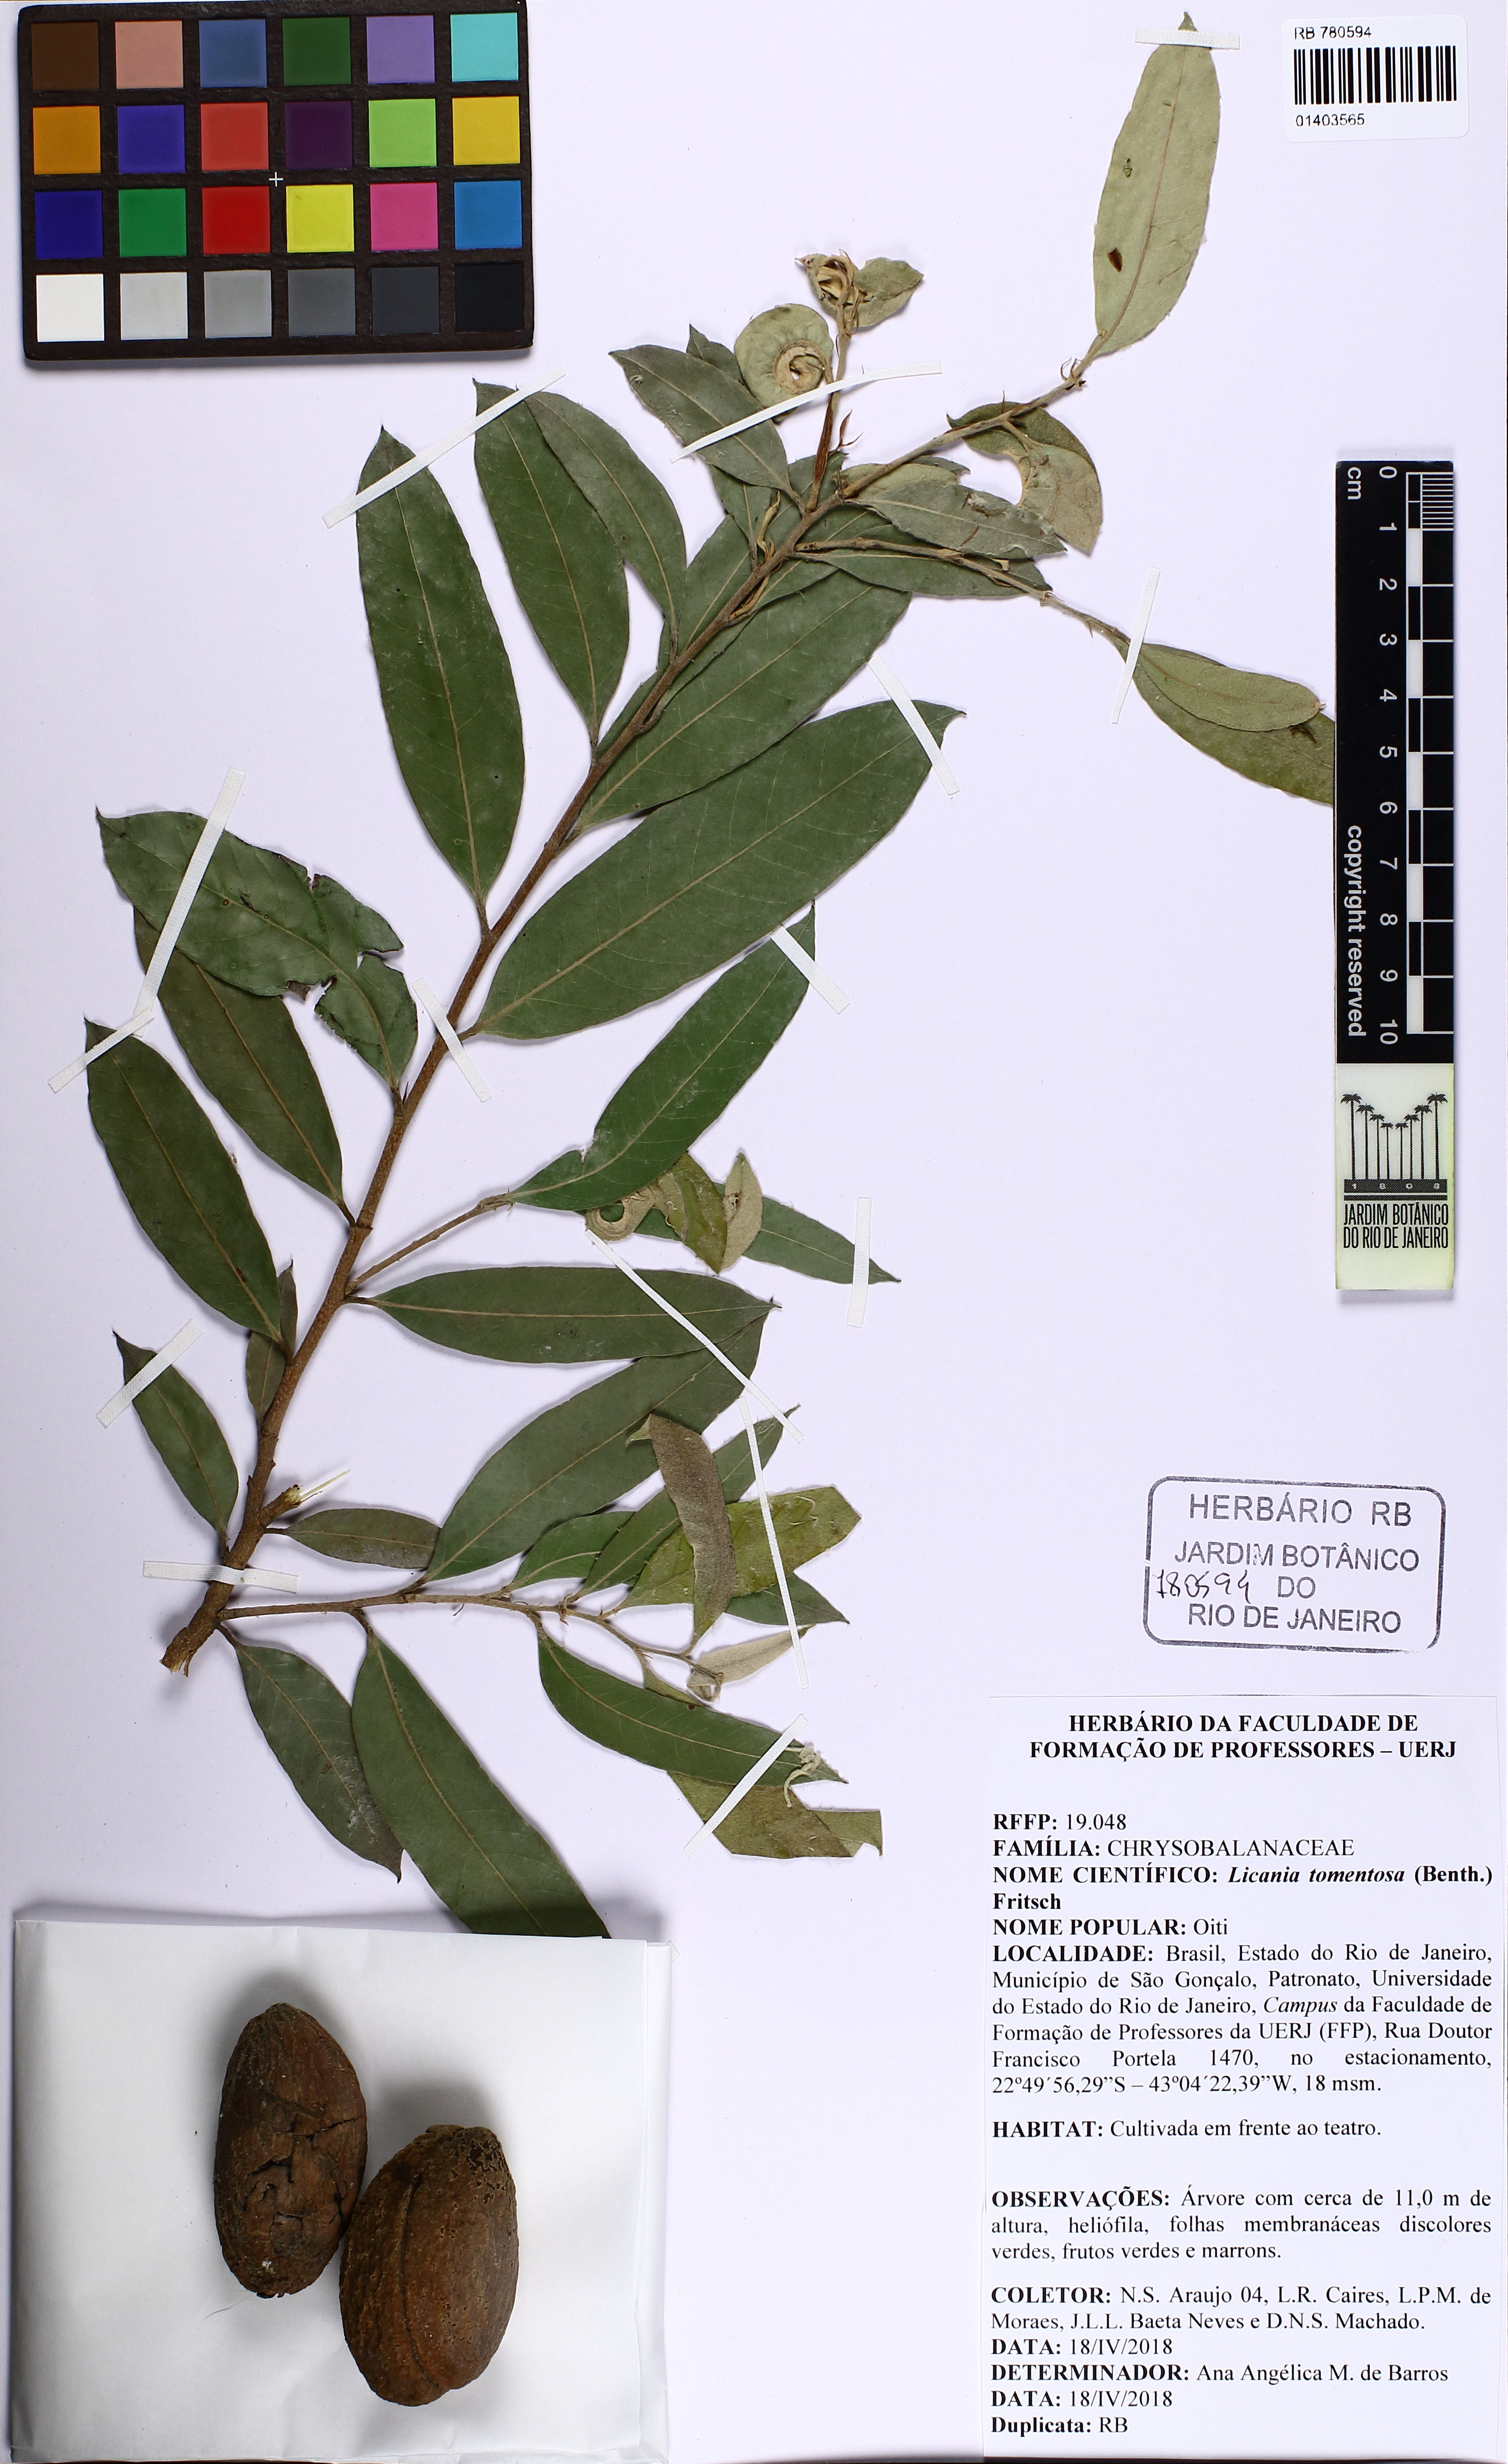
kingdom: Plantae
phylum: Tracheophyta
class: Magnoliopsida
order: Malpighiales
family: Chrysobalanaceae
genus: Moquilea
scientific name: Moquilea tomentosa
